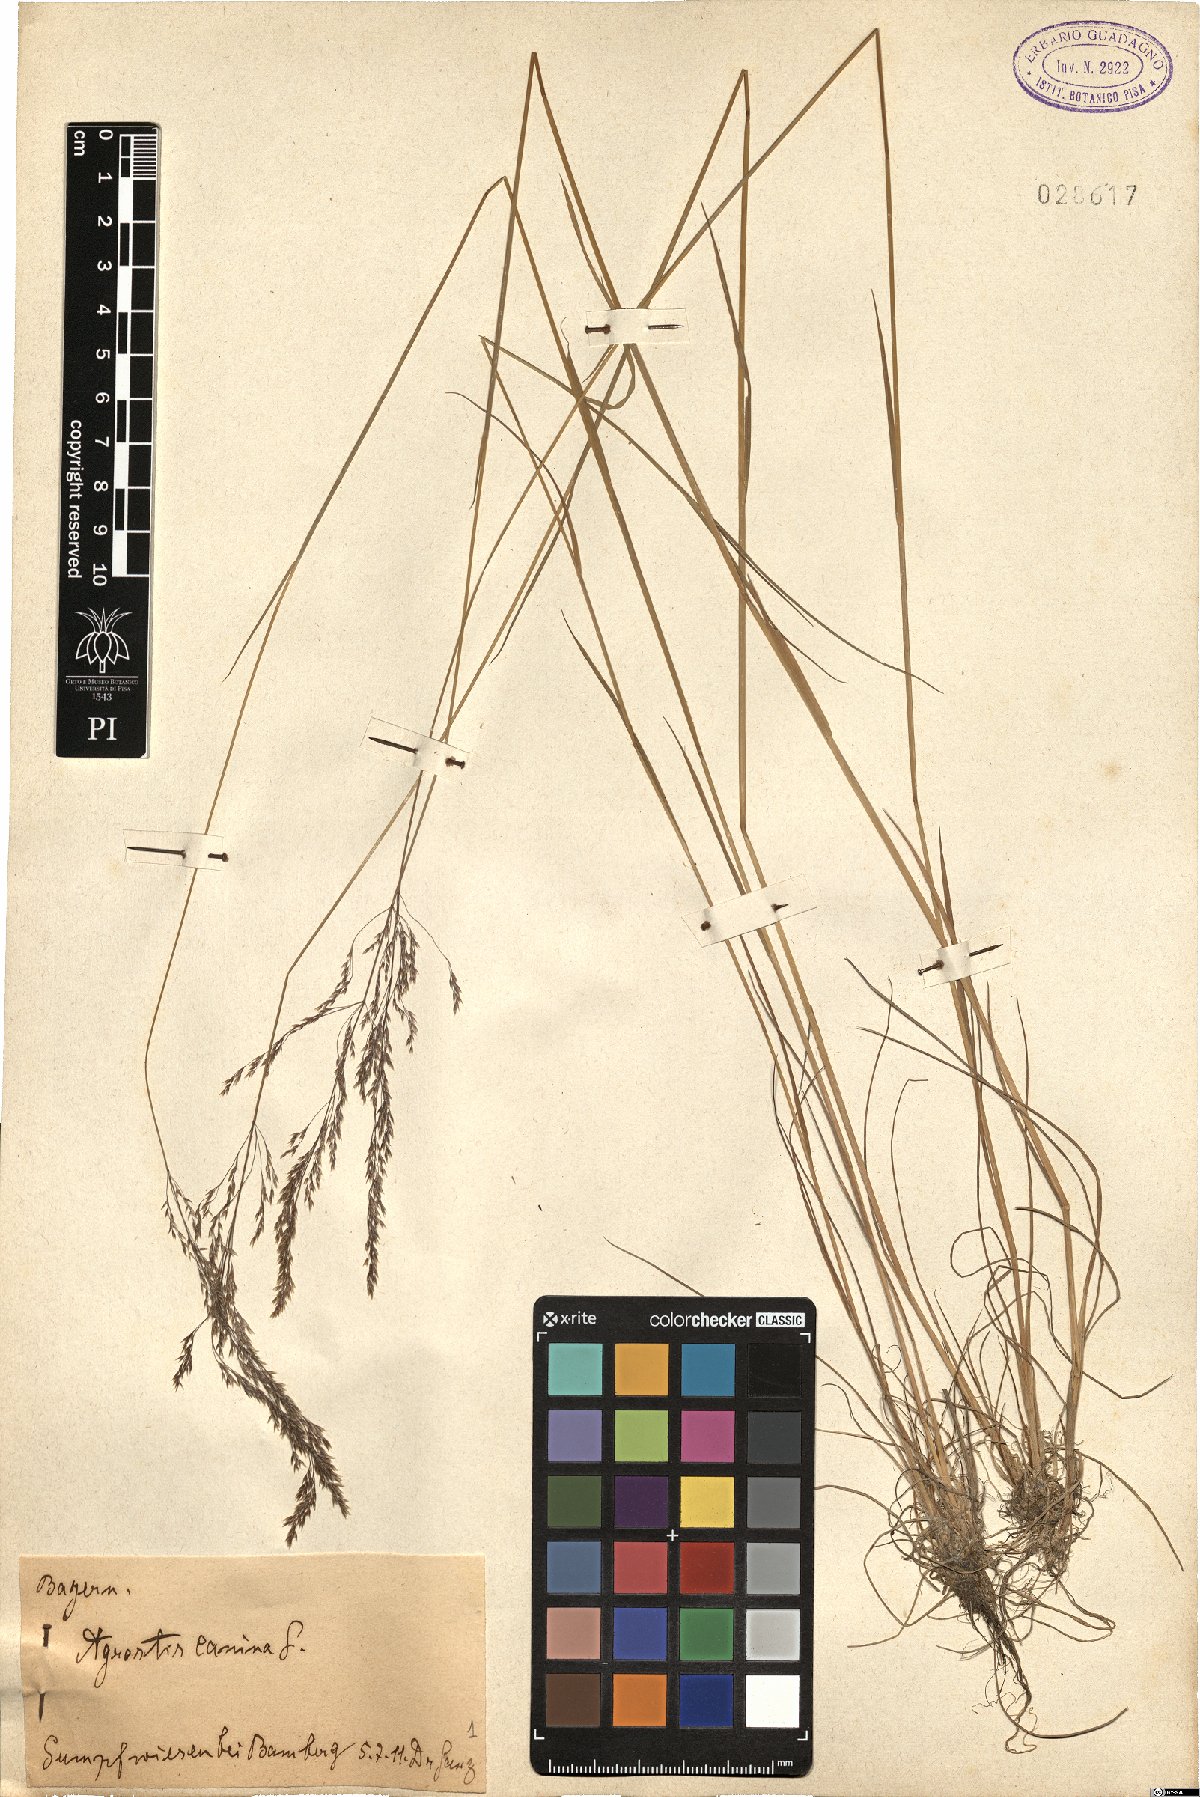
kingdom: Plantae
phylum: Tracheophyta
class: Liliopsida
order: Poales
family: Poaceae
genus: Agrostis
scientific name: Agrostis canina
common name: Velvet bent
